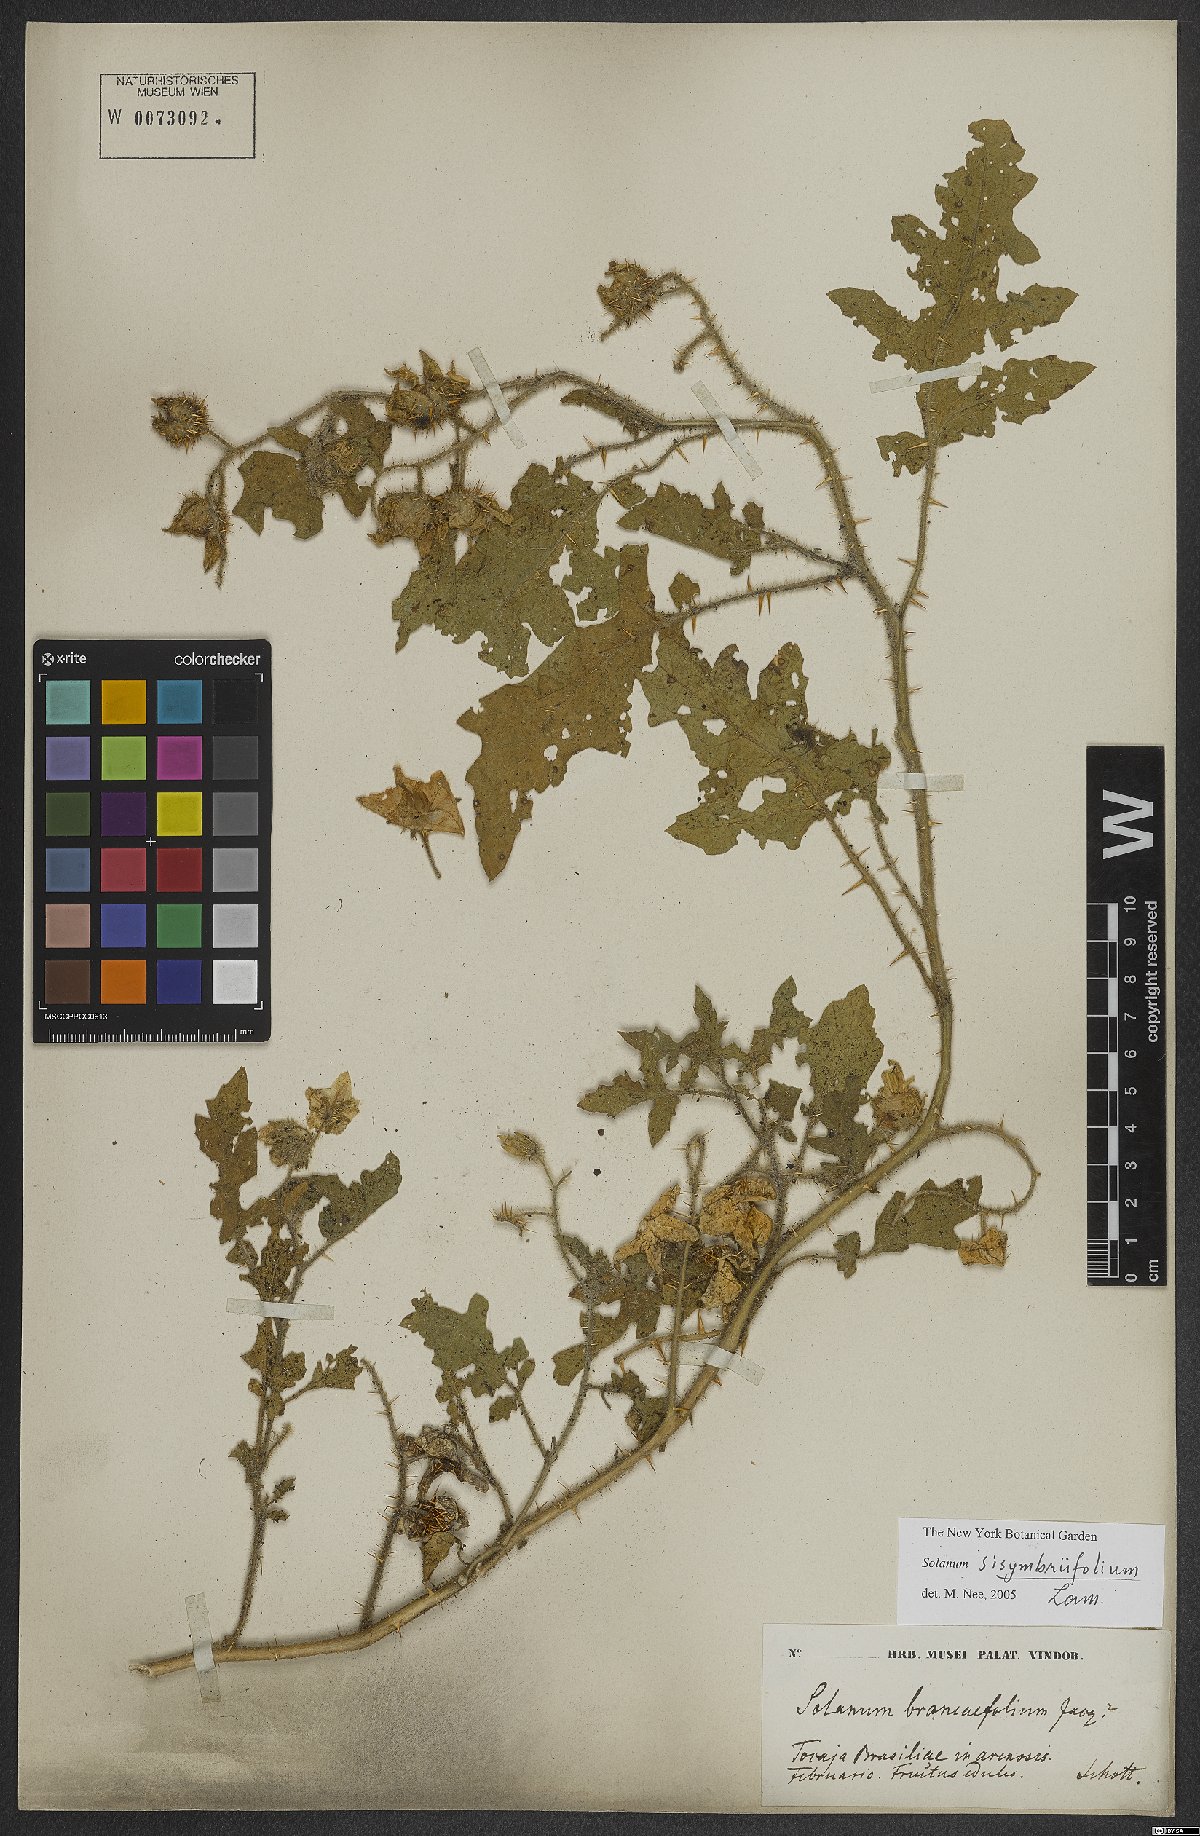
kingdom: Plantae
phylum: Tracheophyta
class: Magnoliopsida
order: Solanales
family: Solanaceae
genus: Solanum
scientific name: Solanum sisymbriifolium
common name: Red buffalo-bur
